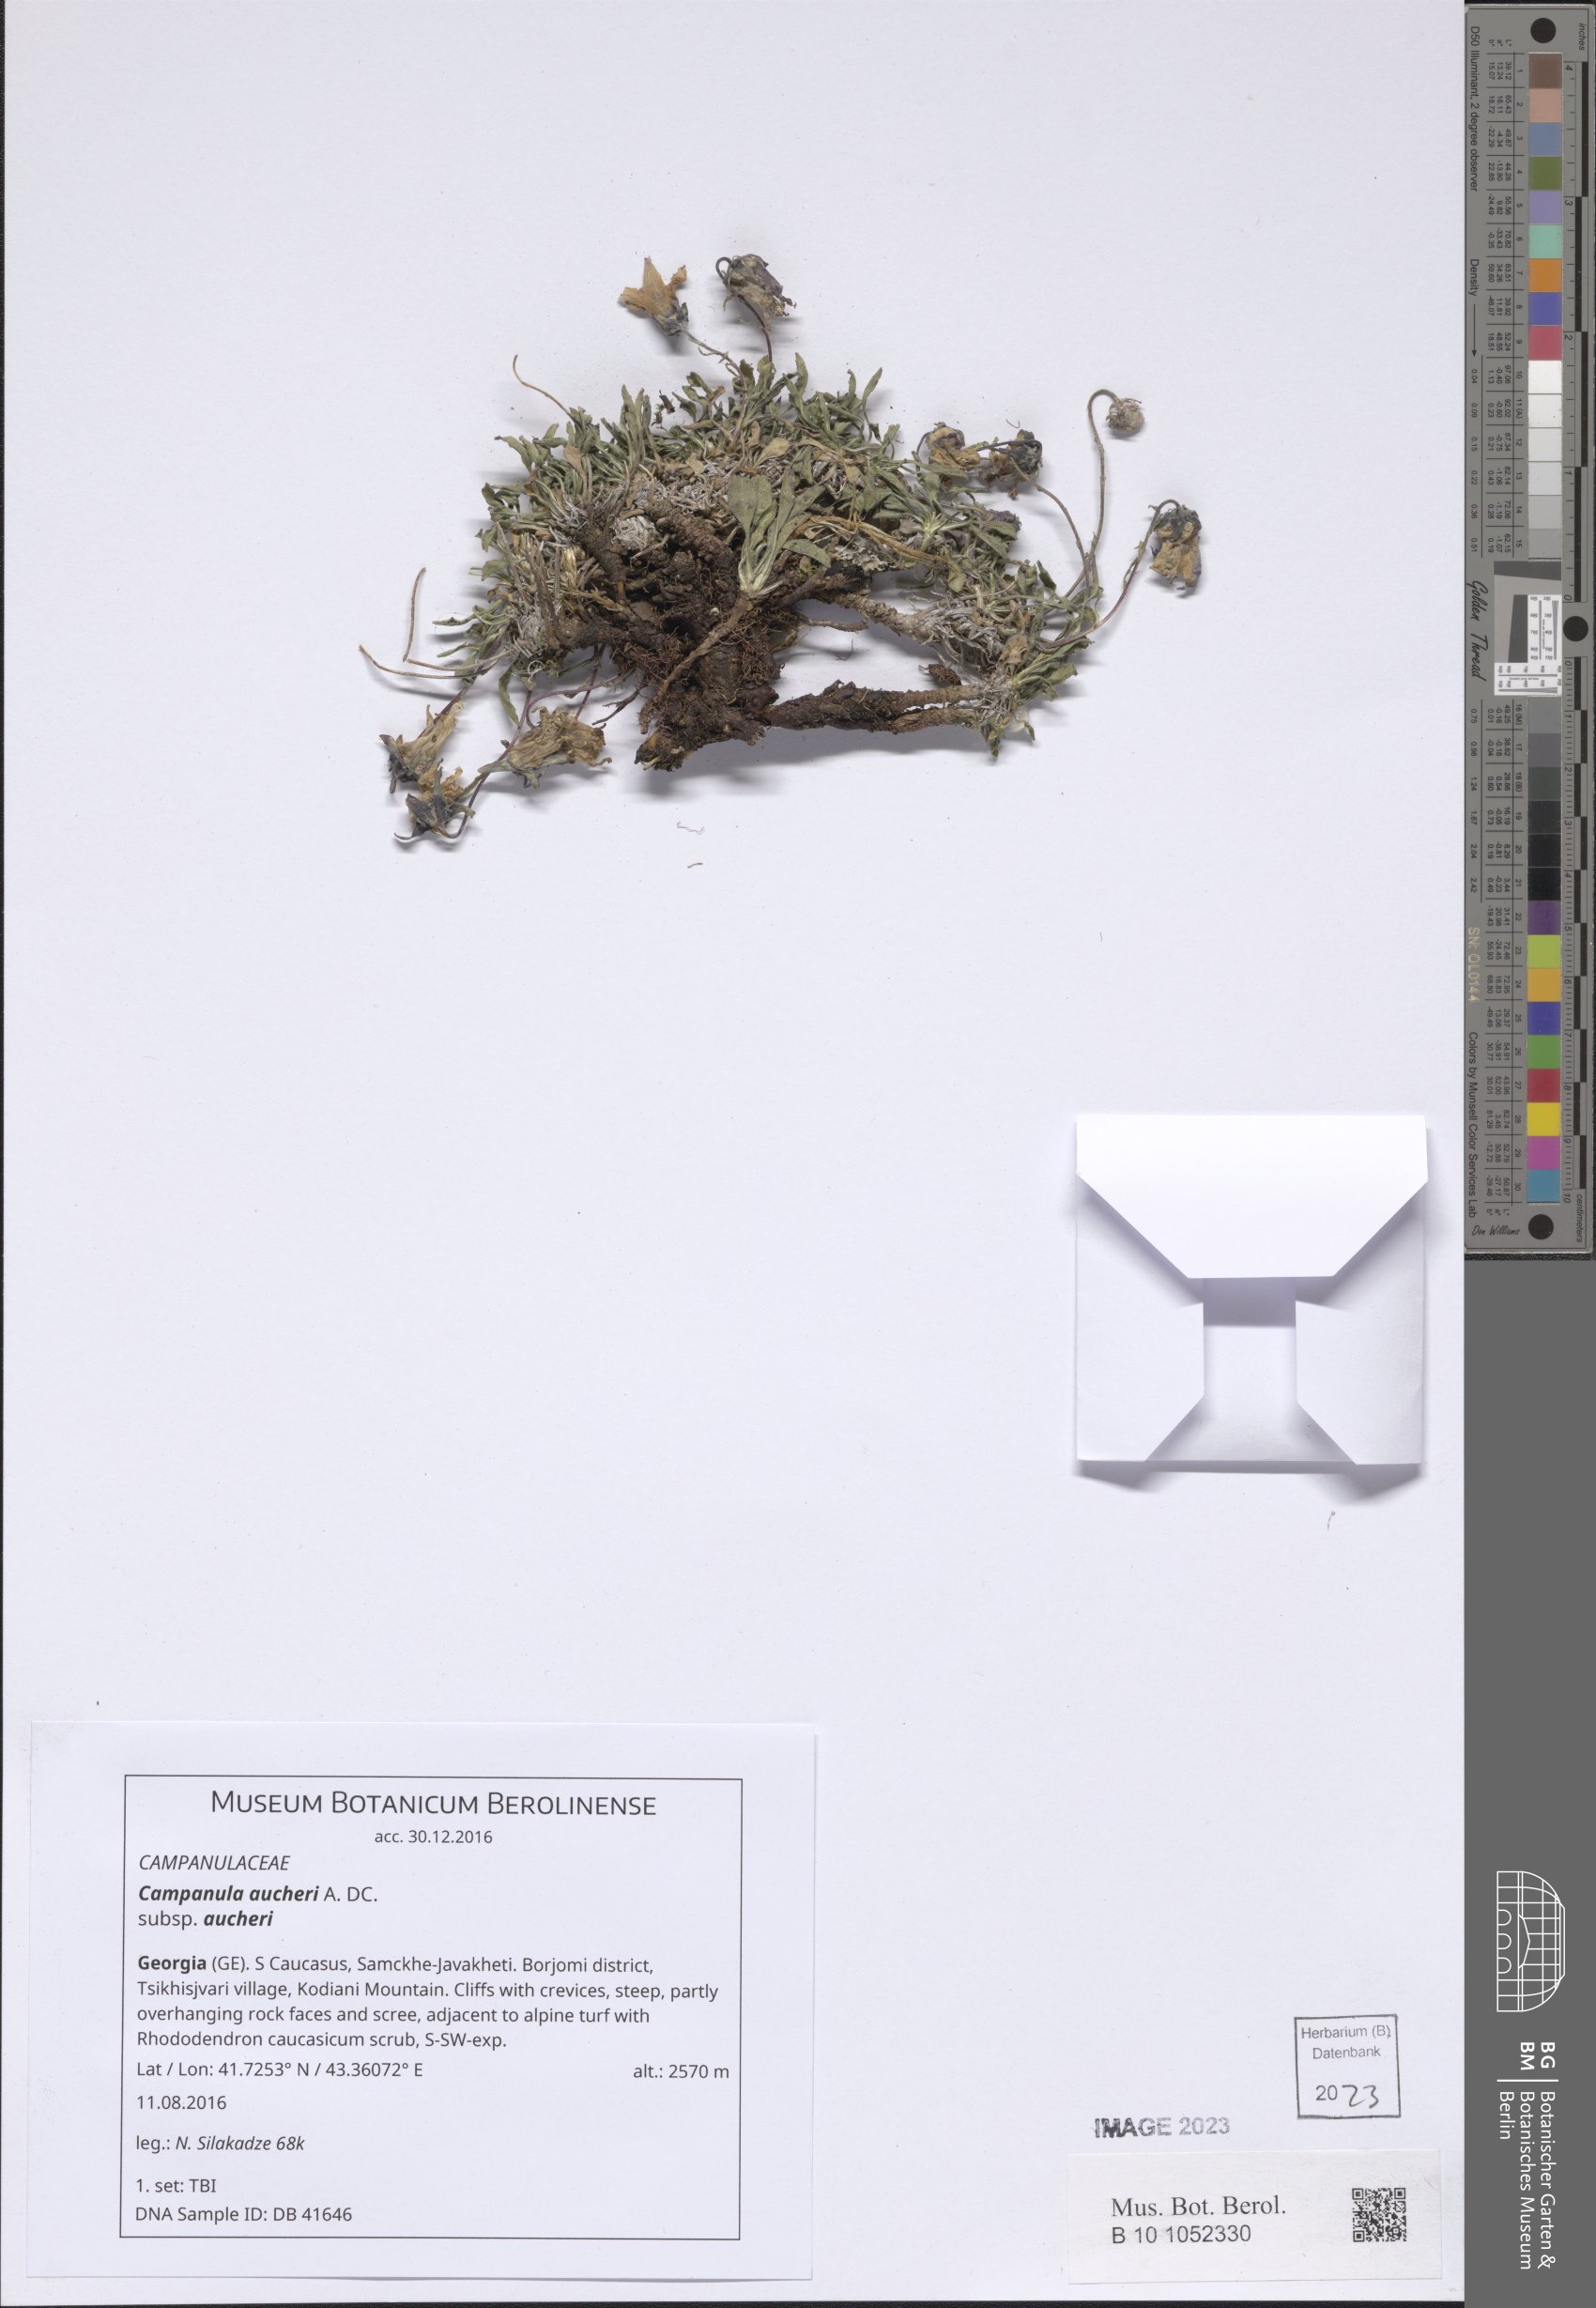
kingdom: Plantae
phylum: Tracheophyta
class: Magnoliopsida
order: Asterales
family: Campanulaceae
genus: Campanula
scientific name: Campanula saxifraga
